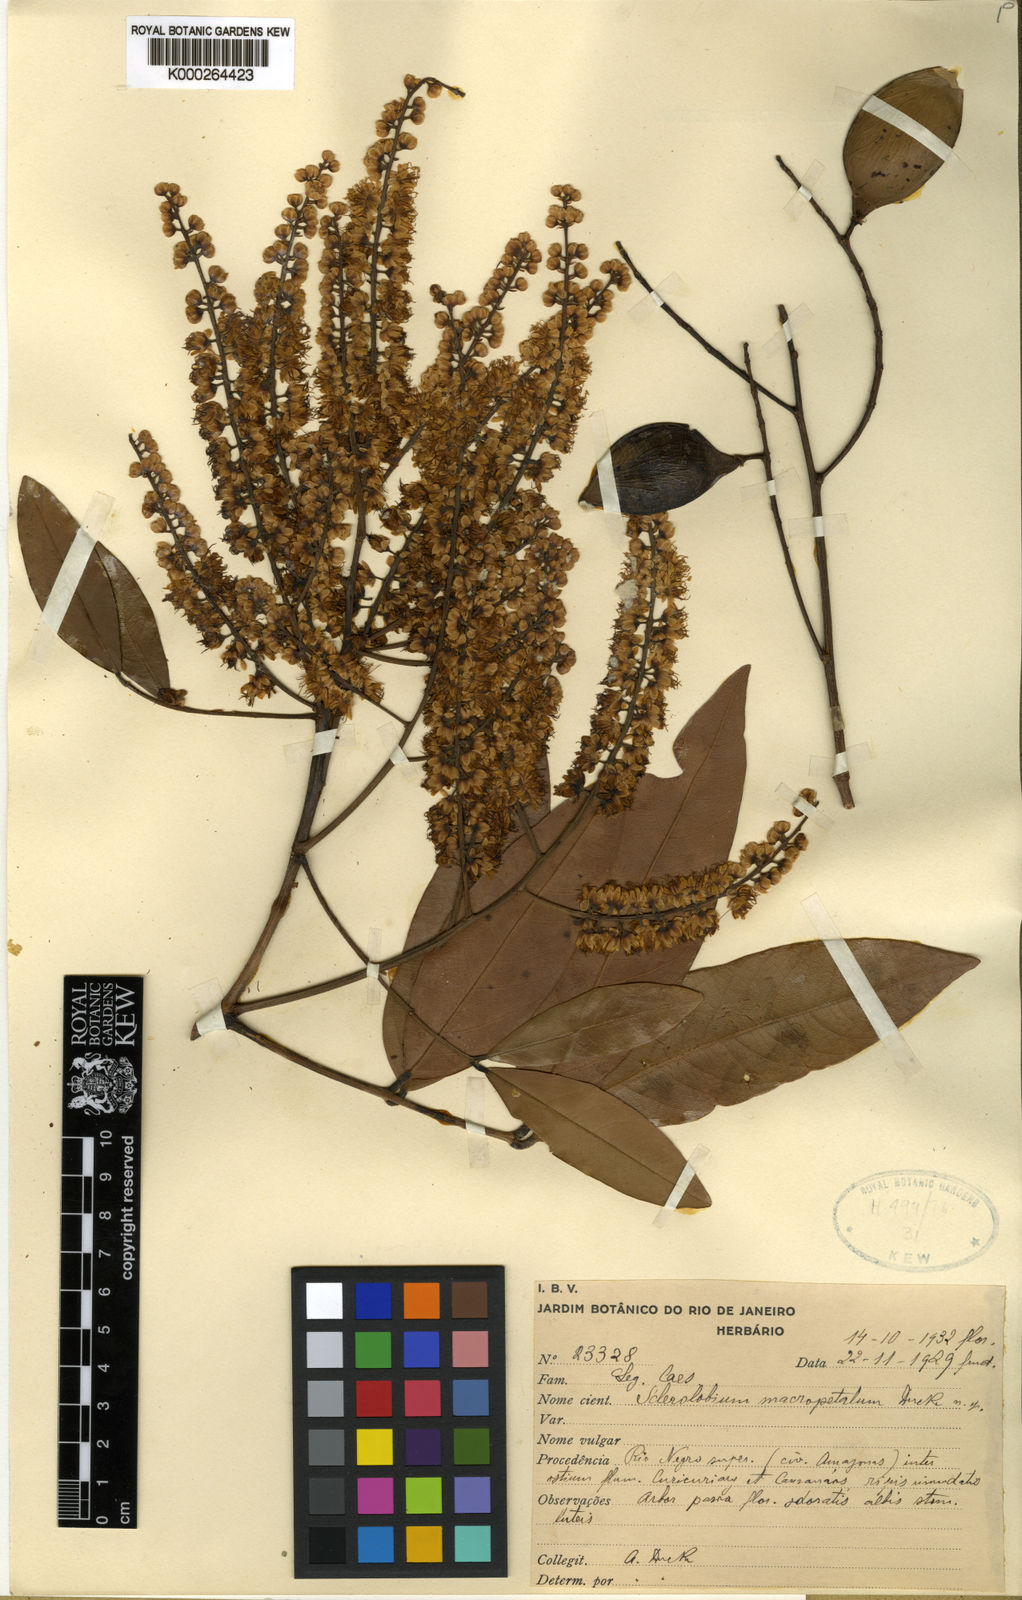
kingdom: Plantae
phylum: Tracheophyta
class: Magnoliopsida
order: Fabales
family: Fabaceae
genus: Tachigali
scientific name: Tachigali macropetala
